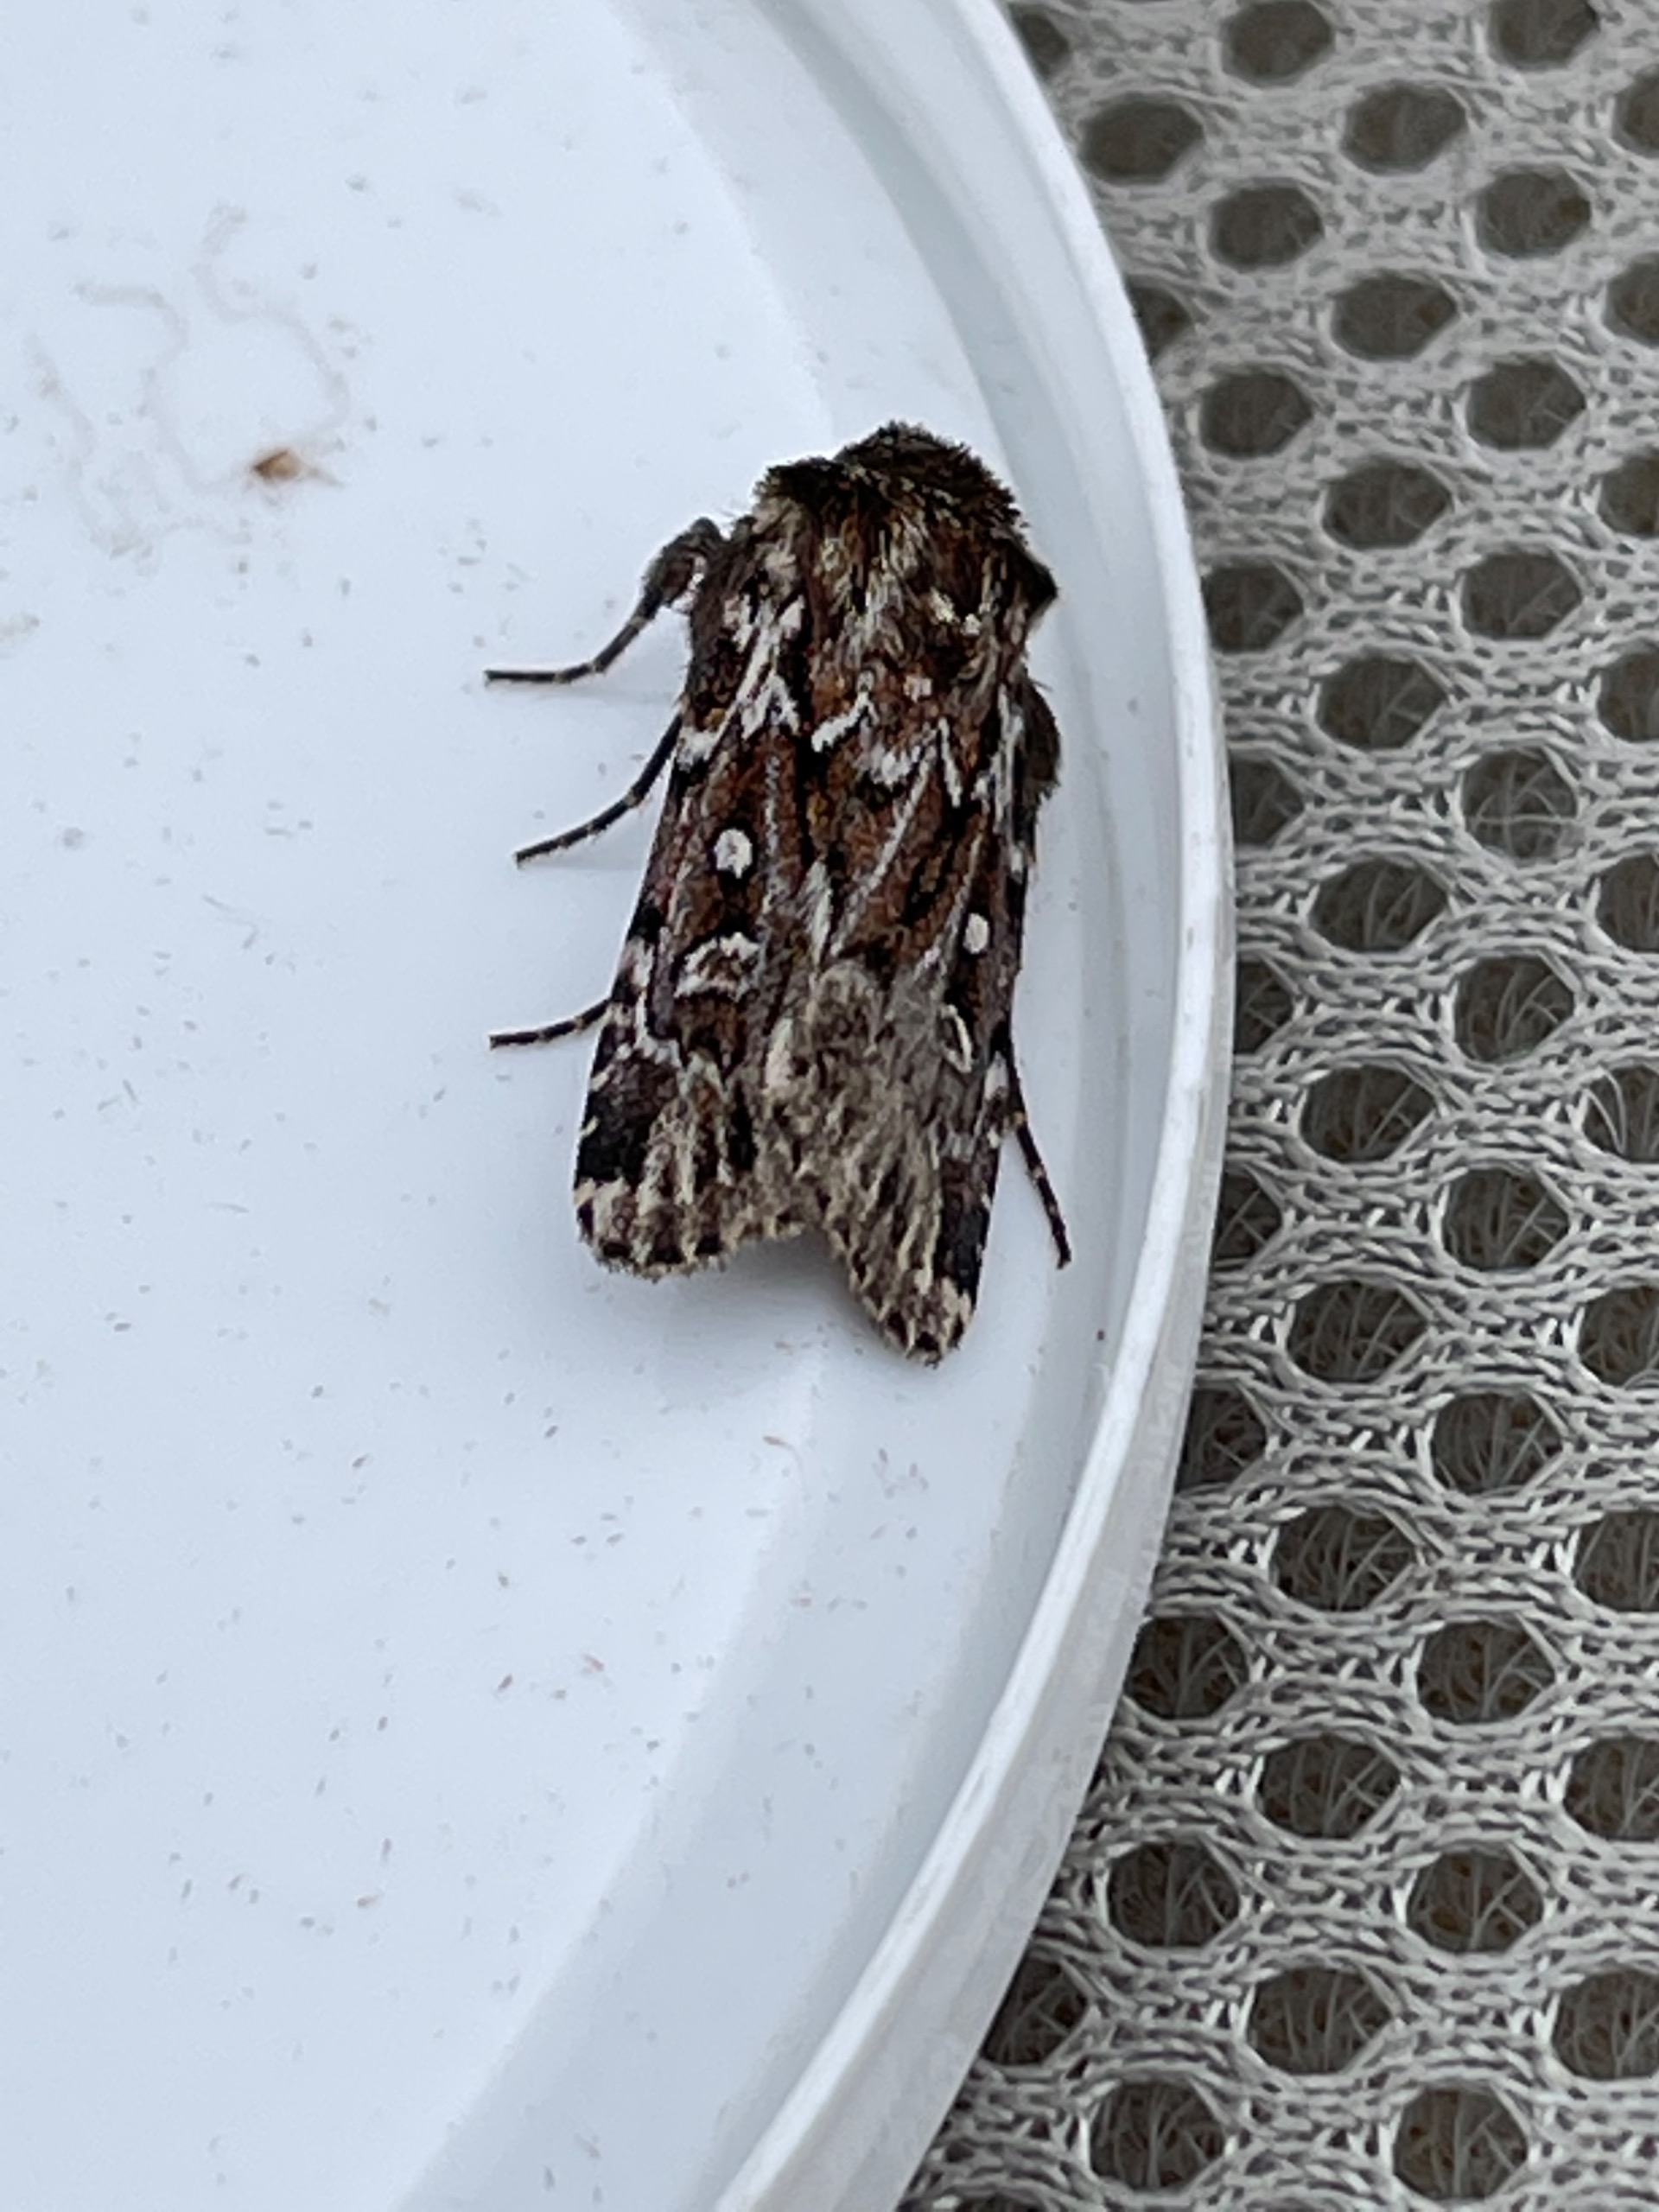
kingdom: Animalia
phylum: Arthropoda
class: Insecta
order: Lepidoptera
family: Noctuidae
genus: Lycophotia
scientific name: Lycophotia porphyrea
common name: Spættet lyngugle
